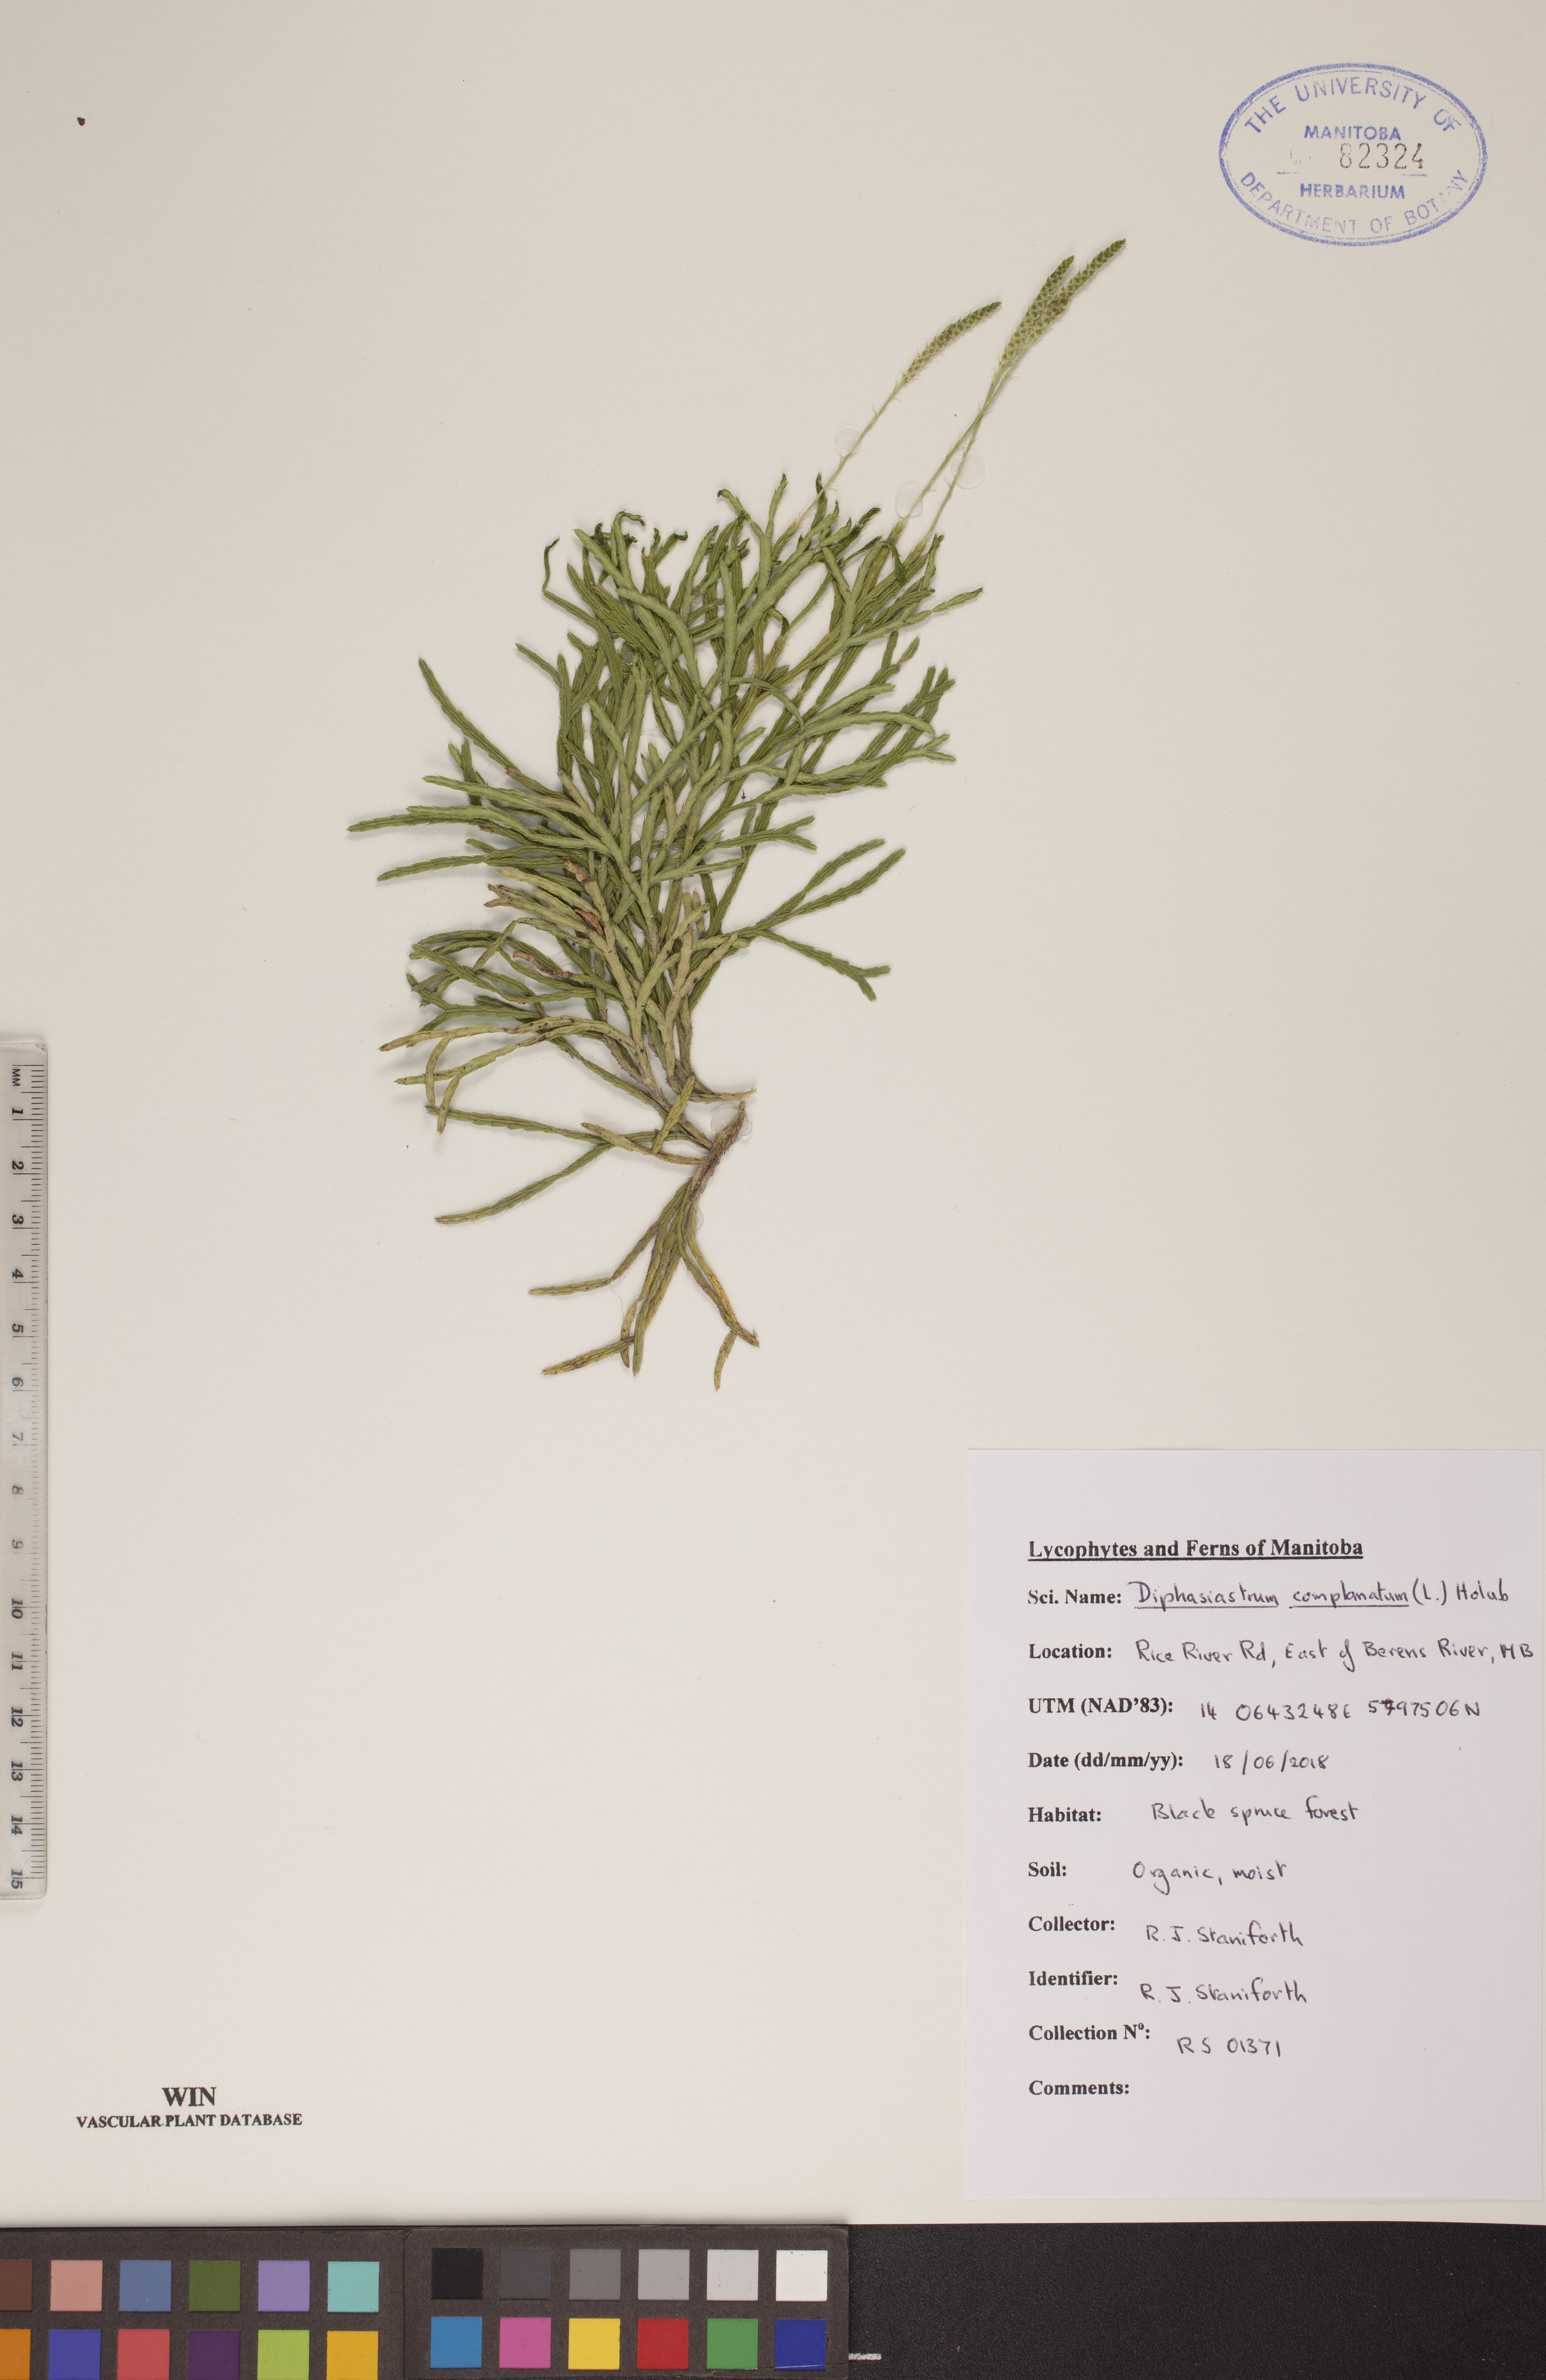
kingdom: Plantae
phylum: Tracheophyta
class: Lycopodiopsida
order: Lycopodiales
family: Lycopodiaceae
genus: Diphasiastrum
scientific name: Diphasiastrum complanatum
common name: Northern running-pine
